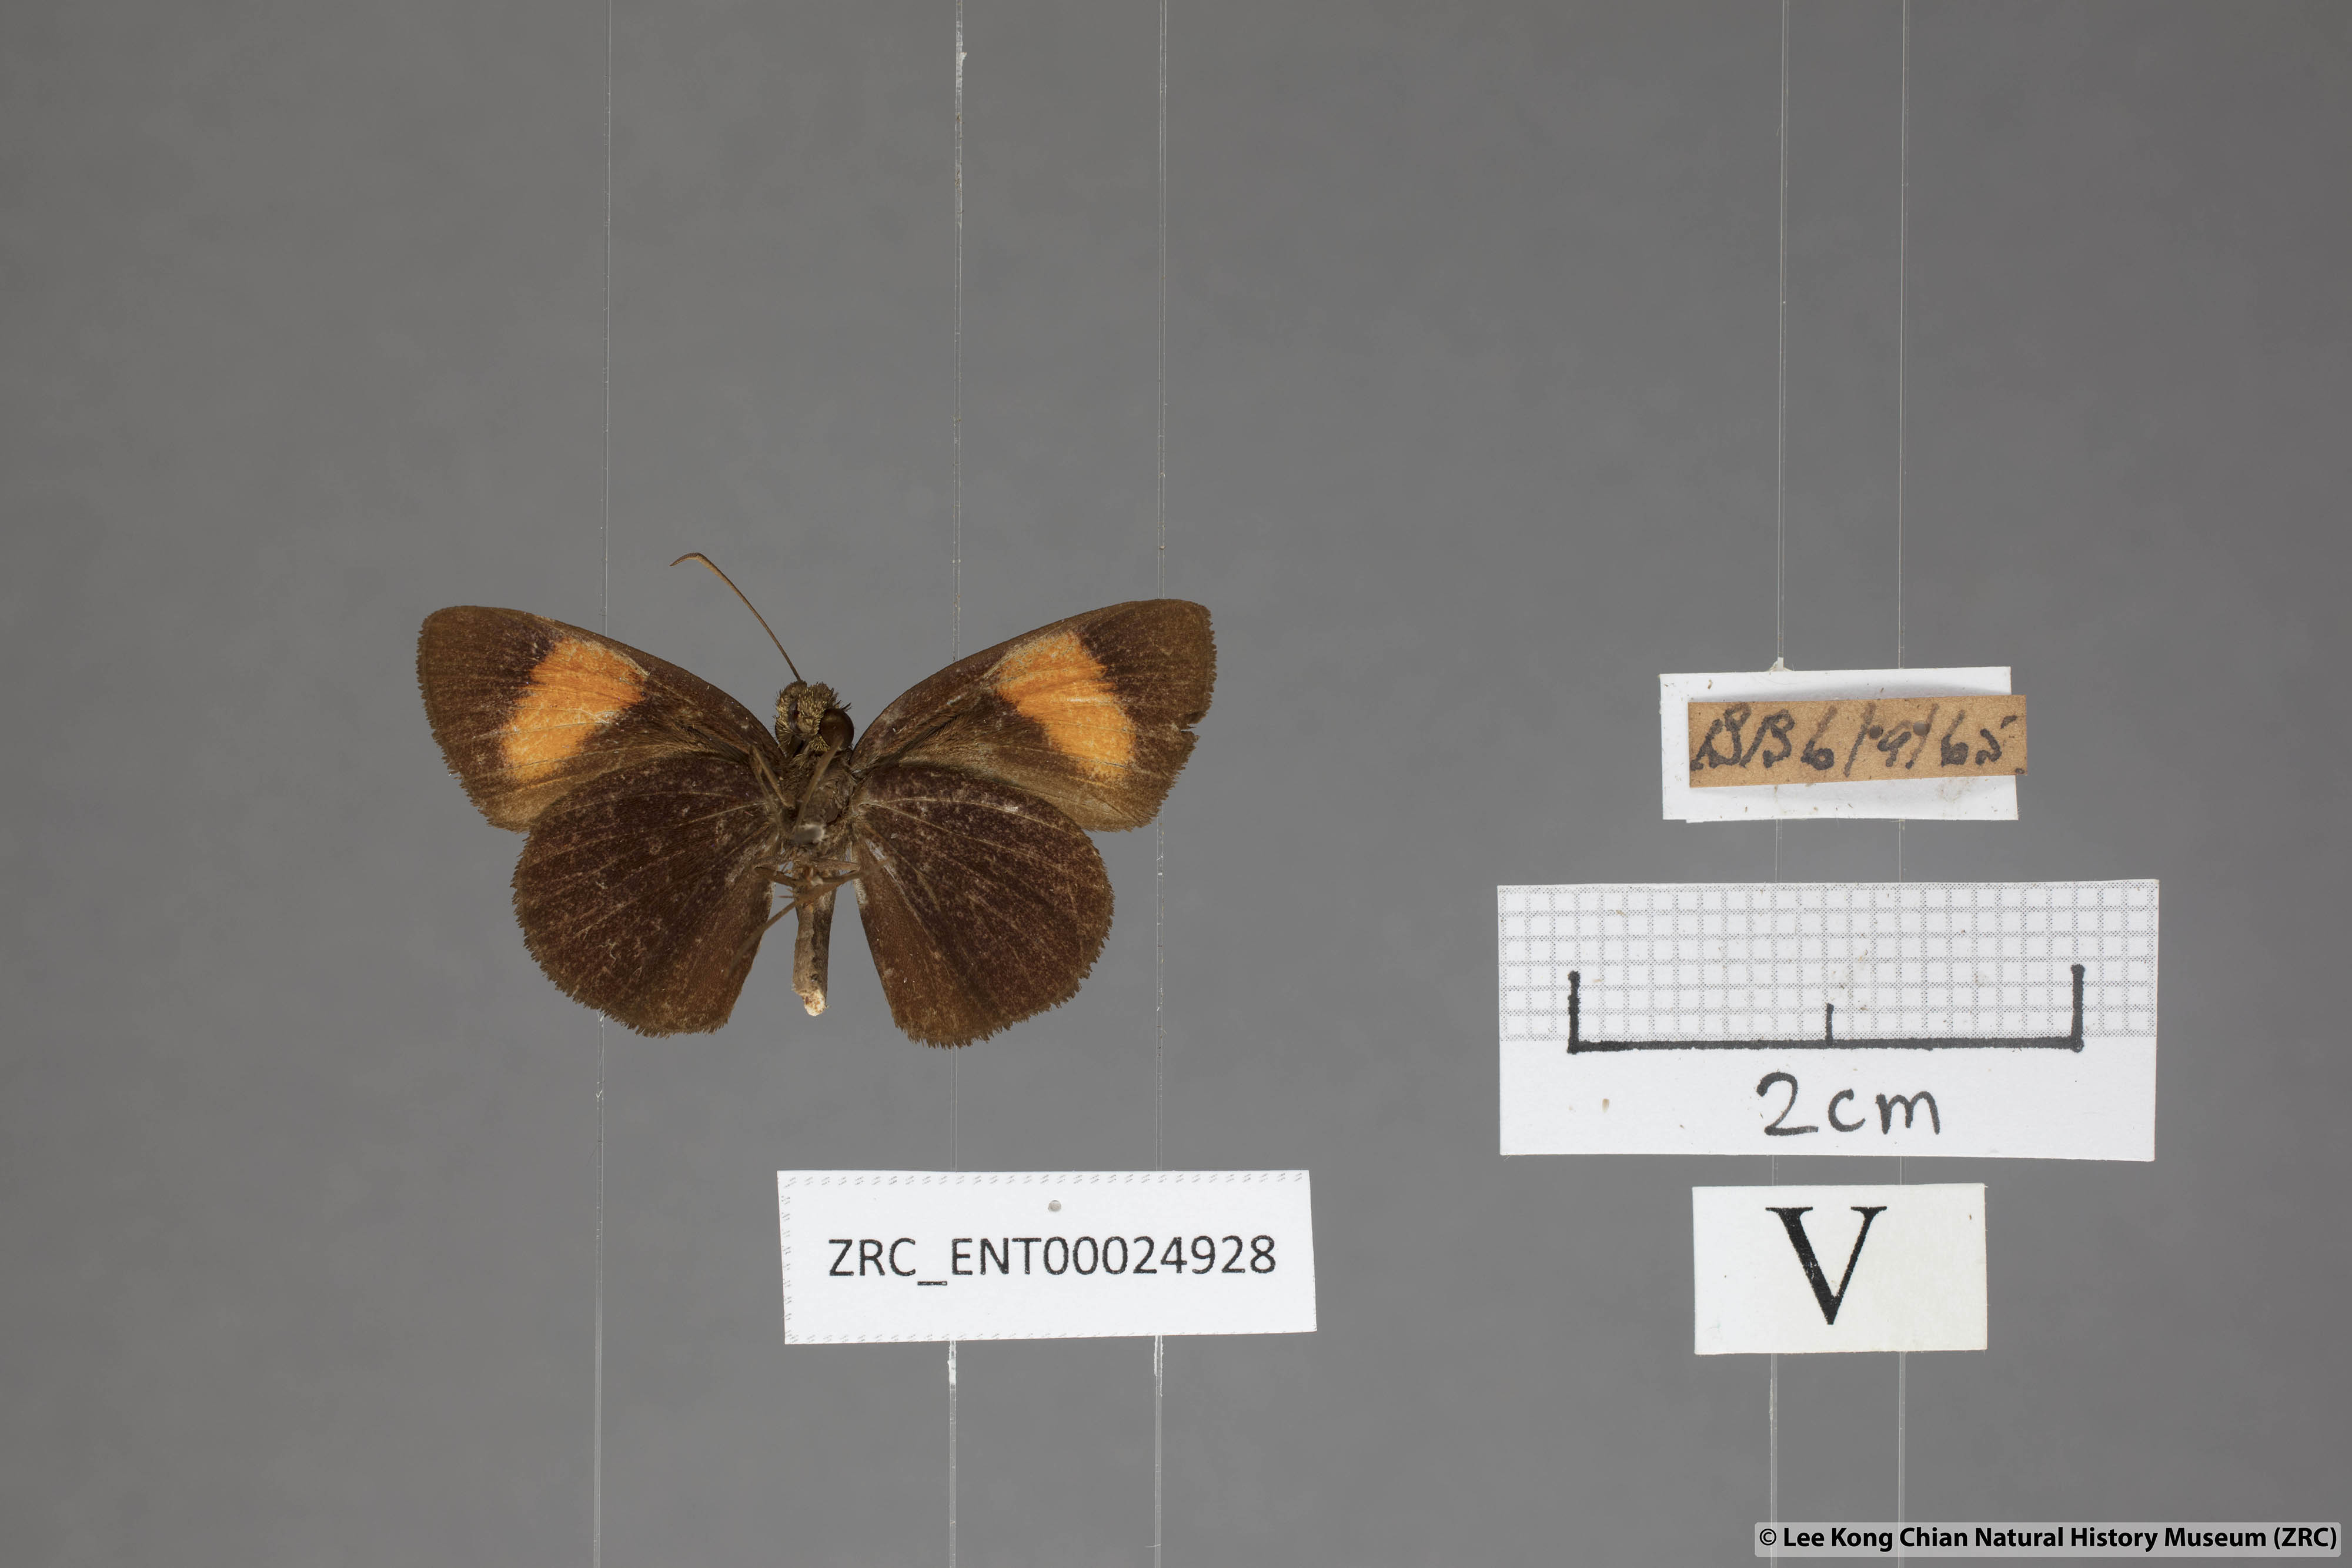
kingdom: Animalia
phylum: Arthropoda
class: Insecta
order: Lepidoptera
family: Hesperiidae
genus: Koruthaialos
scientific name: Koruthaialos rubecula
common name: Narrow-banded velvet bob
